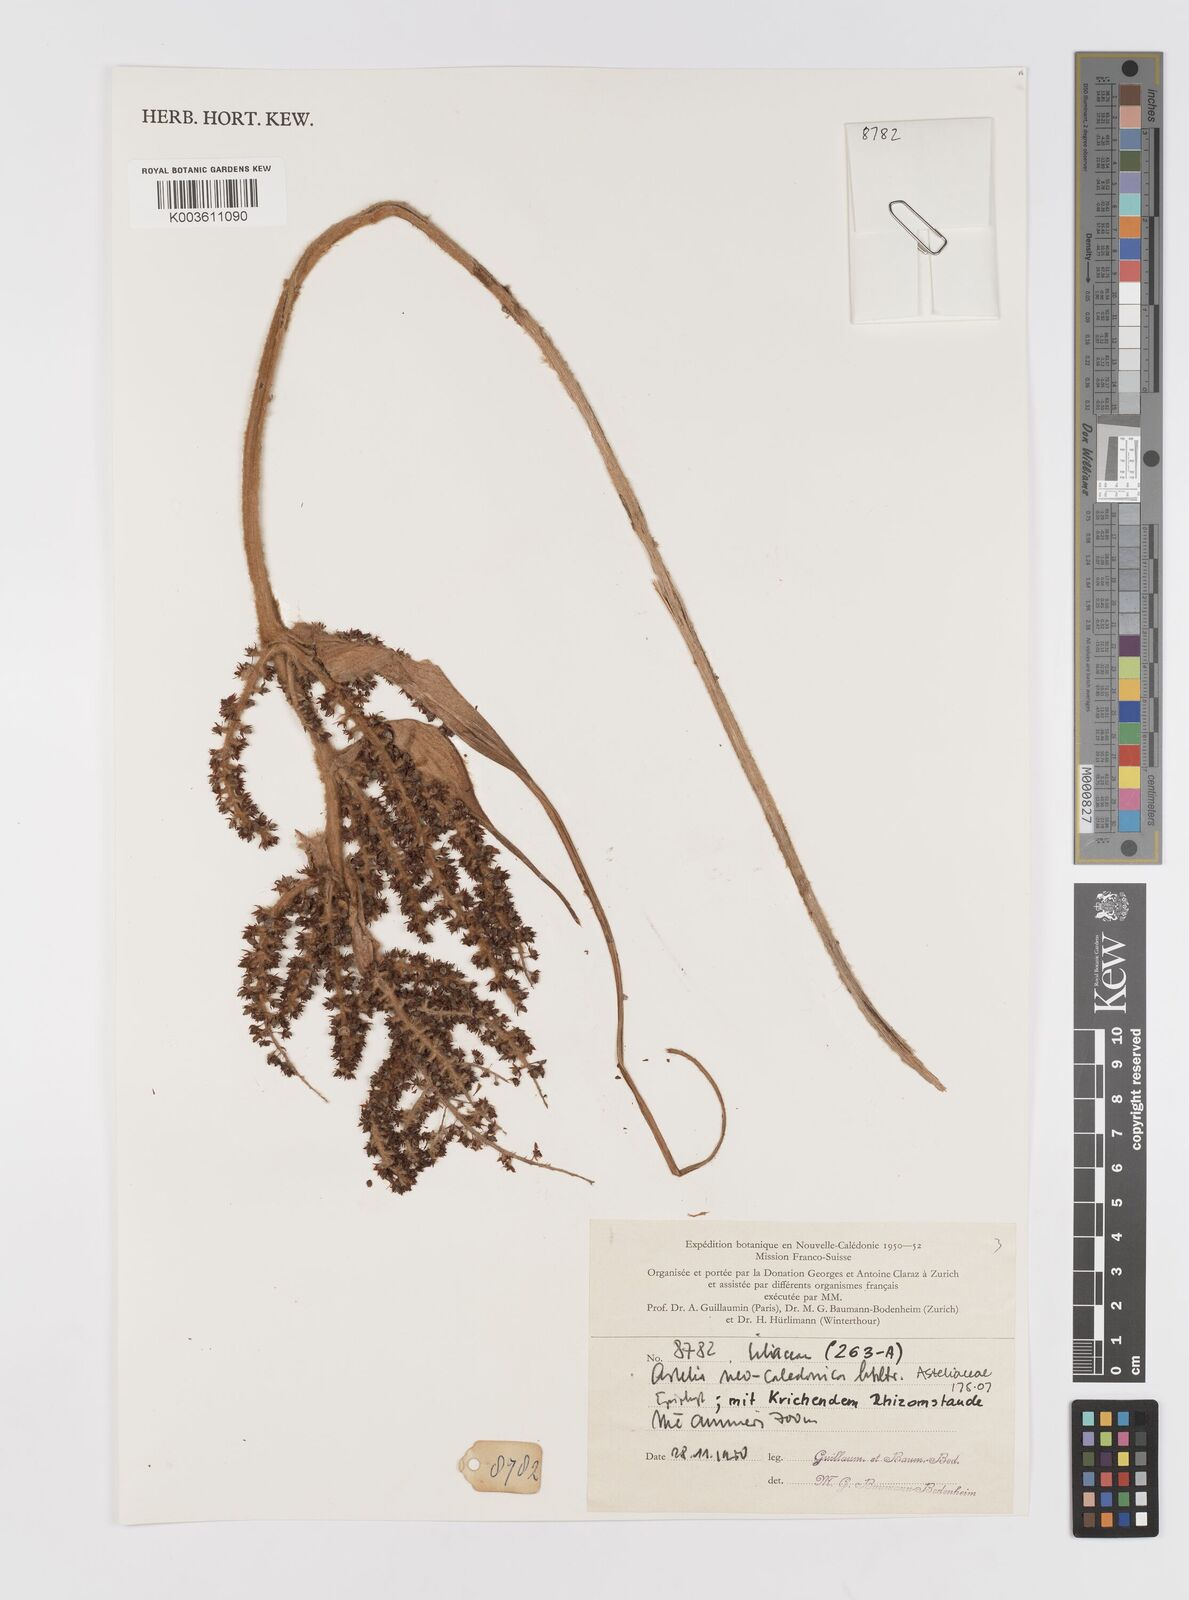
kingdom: Plantae
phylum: Tracheophyta
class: Liliopsida
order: Asparagales
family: Asteliaceae
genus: Astelia
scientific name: Astelia neocaledonica
